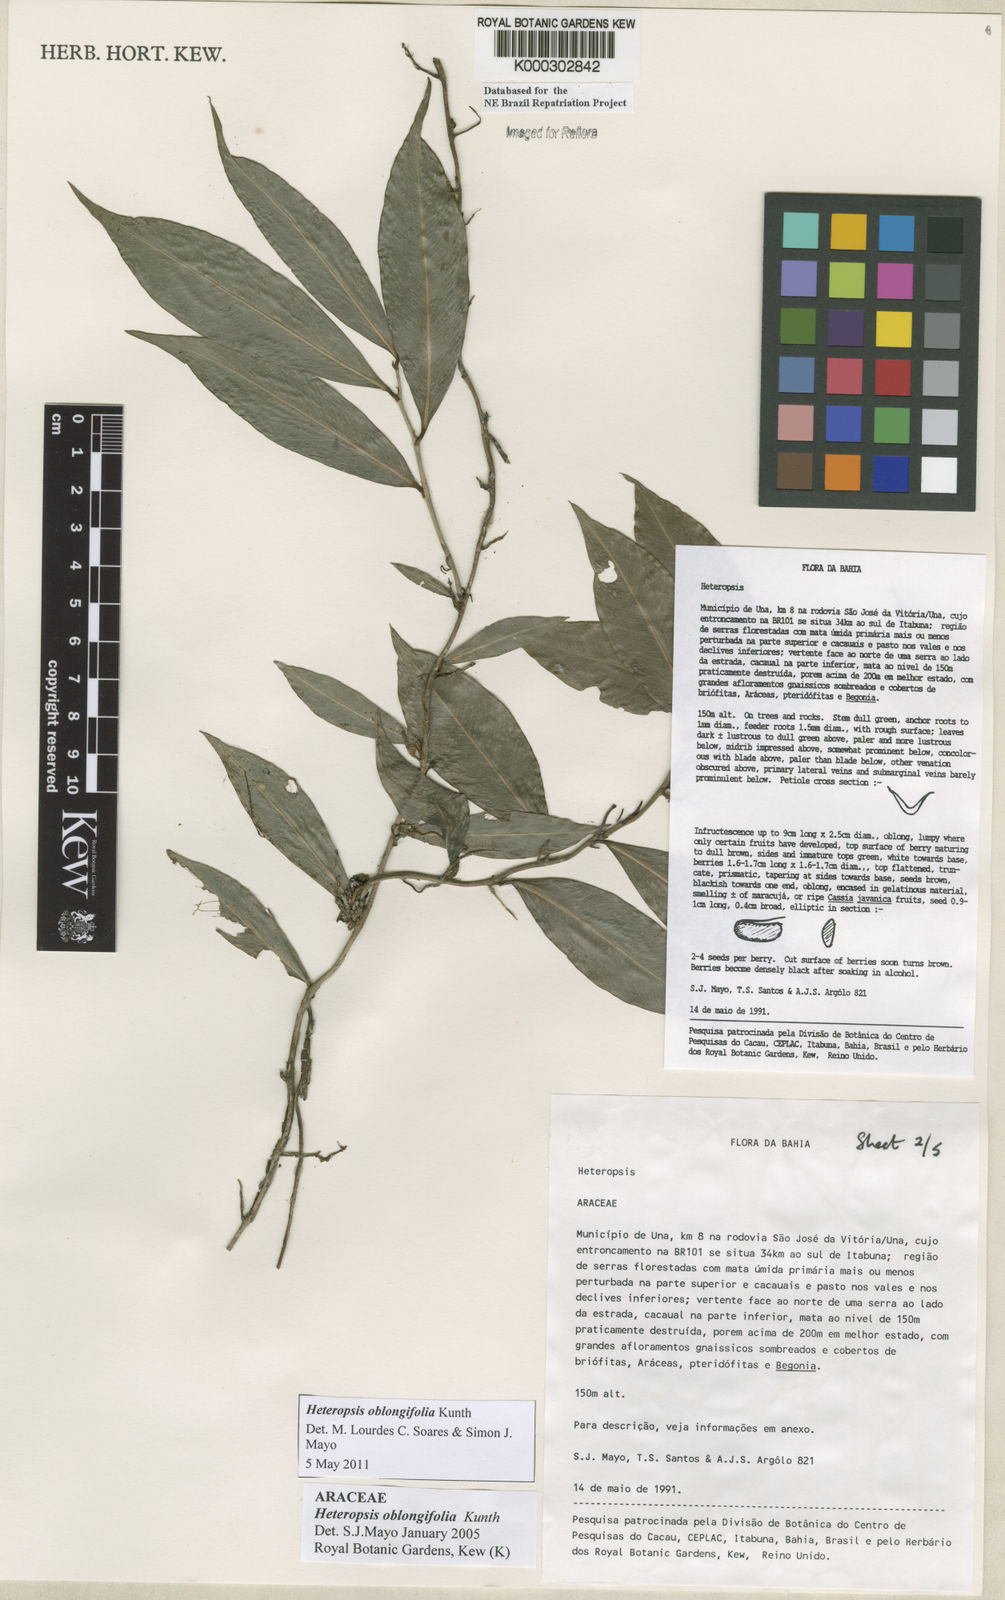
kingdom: Plantae
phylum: Tracheophyta
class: Liliopsida
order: Alismatales
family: Araceae
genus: Heteropsis
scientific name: Heteropsis oblongifolia
